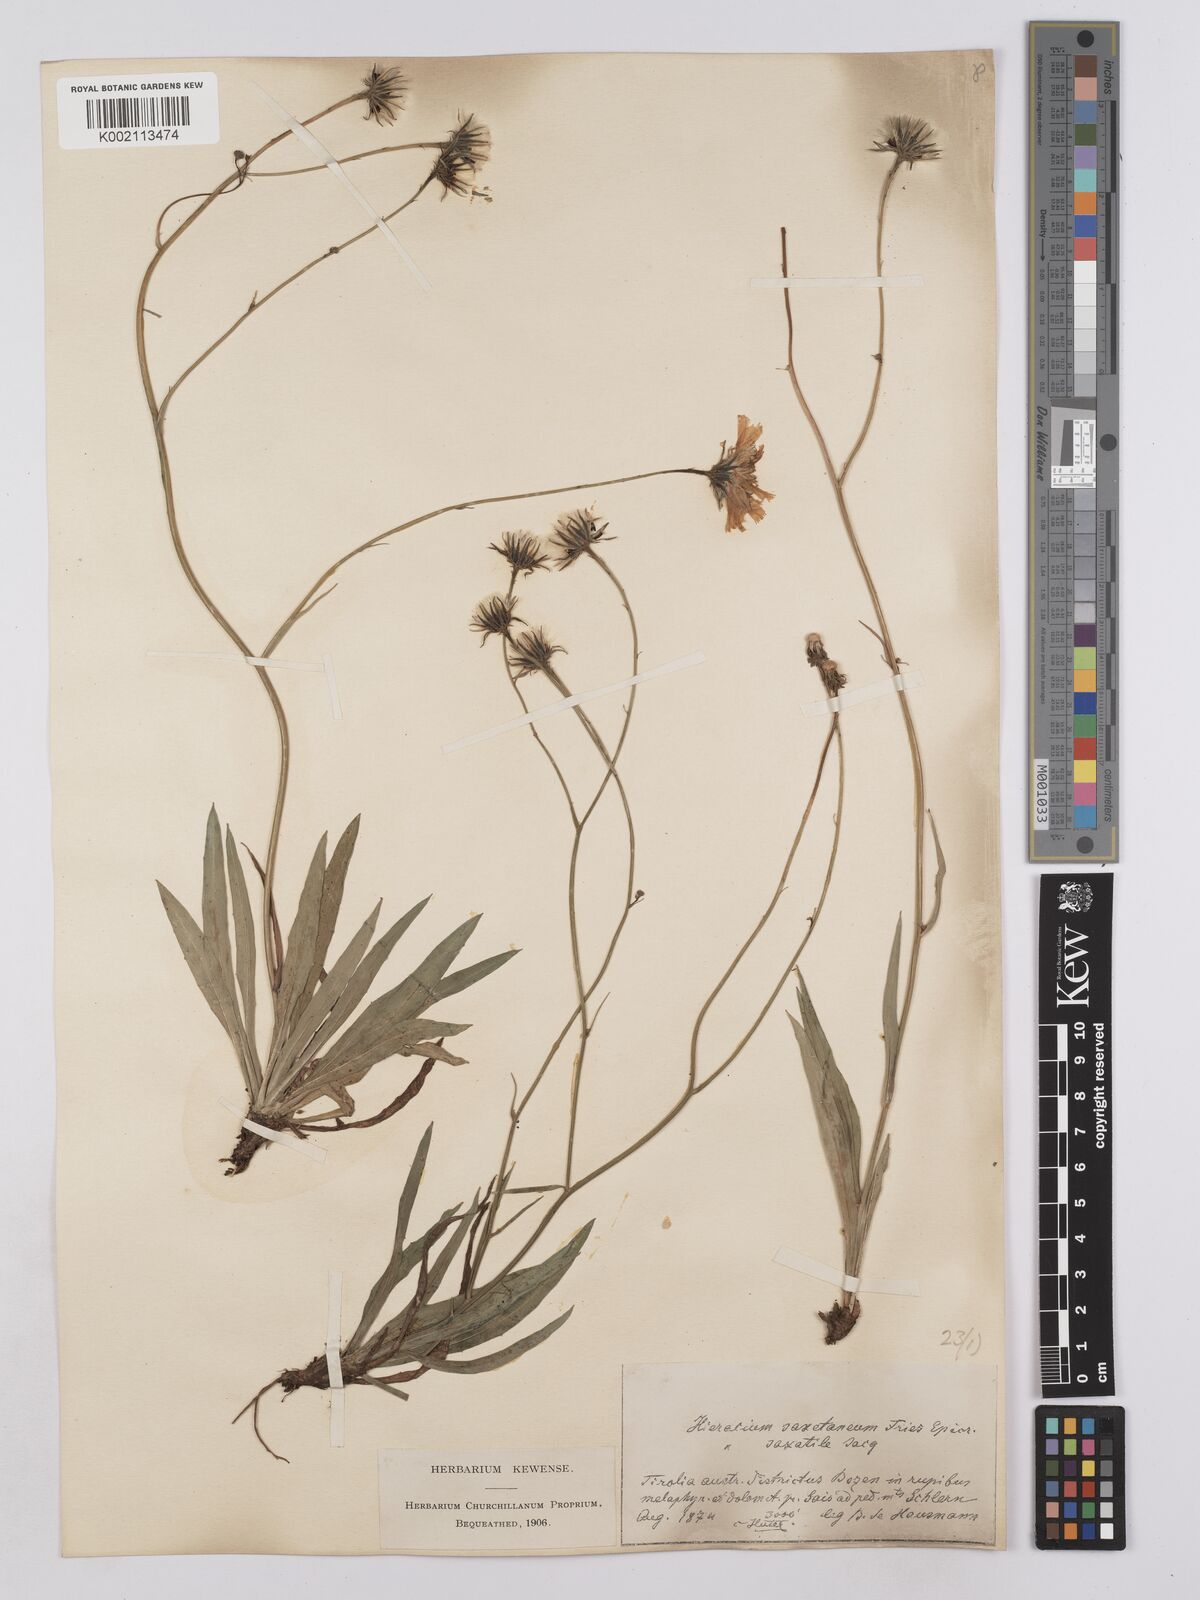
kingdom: Plantae
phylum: Tracheophyta
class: Magnoliopsida
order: Asterales
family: Asteraceae
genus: Hieracium
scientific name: Hieracium saxatile
